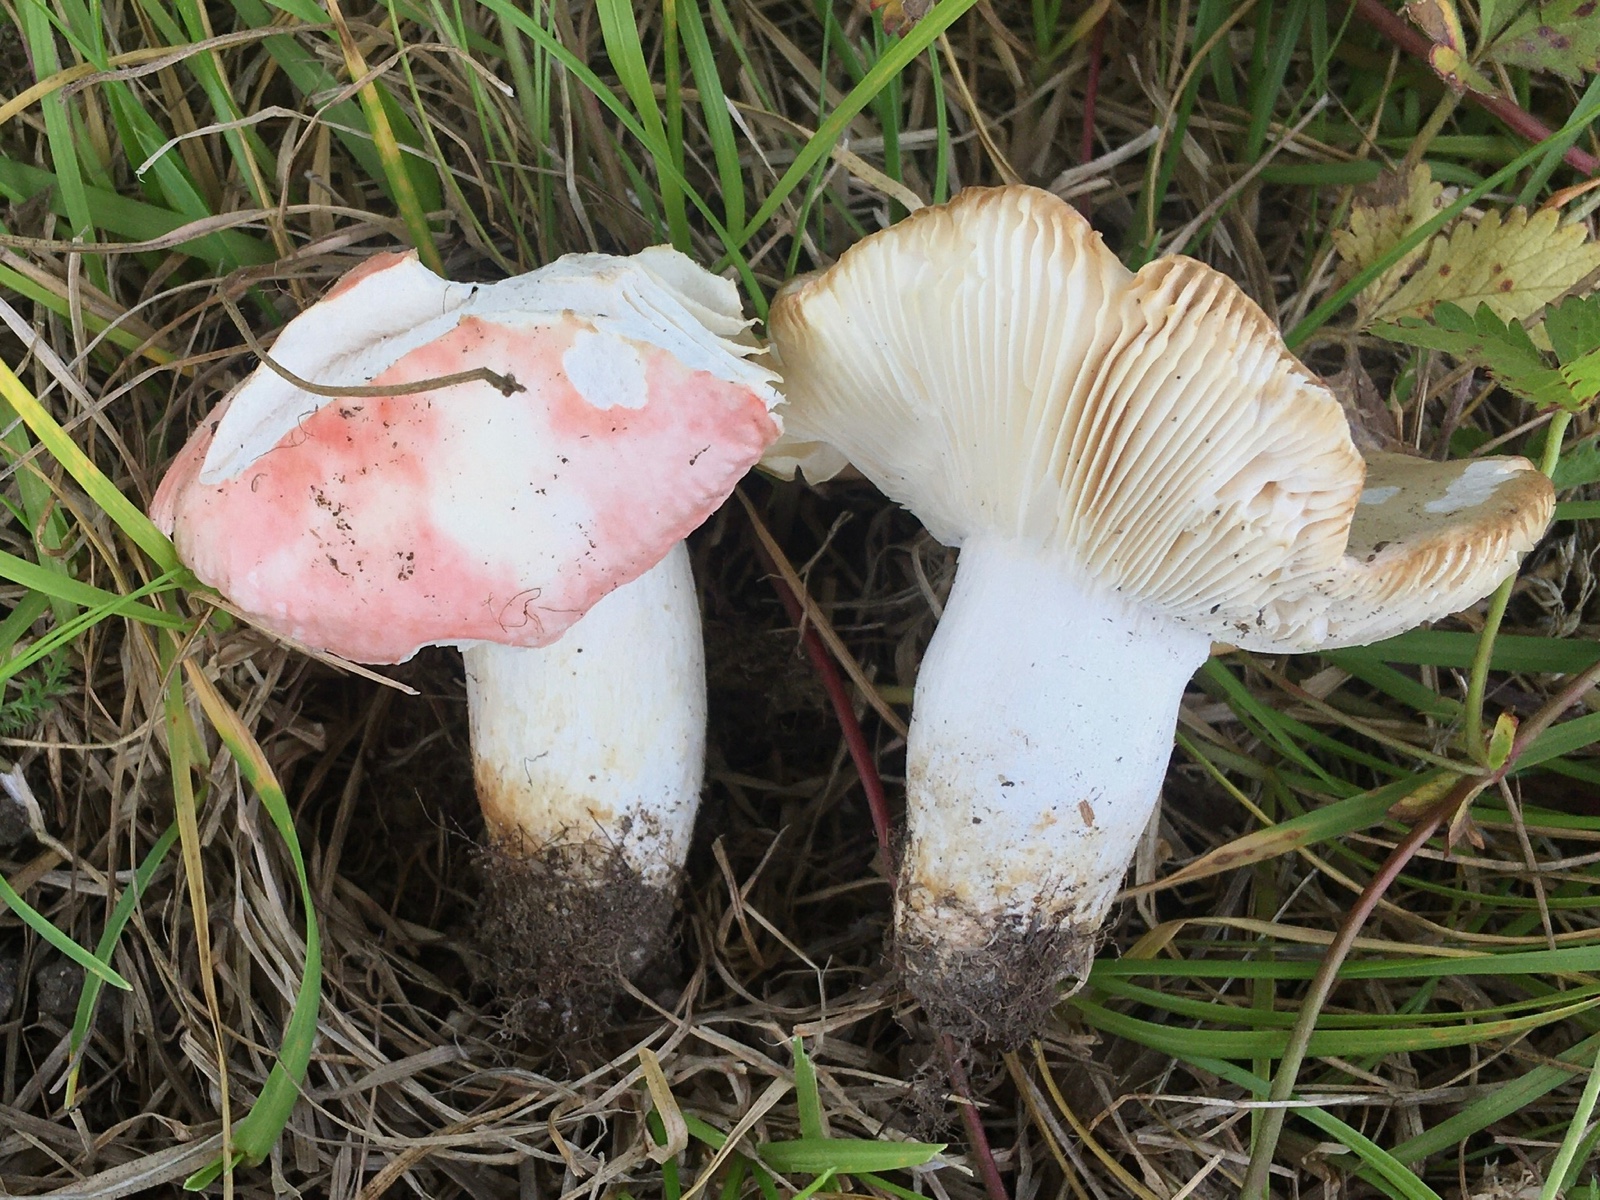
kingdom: Fungi
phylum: Basidiomycota
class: Agaricomycetes
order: Russulales
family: Russulaceae
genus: Russula
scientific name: Russula roseocremea
